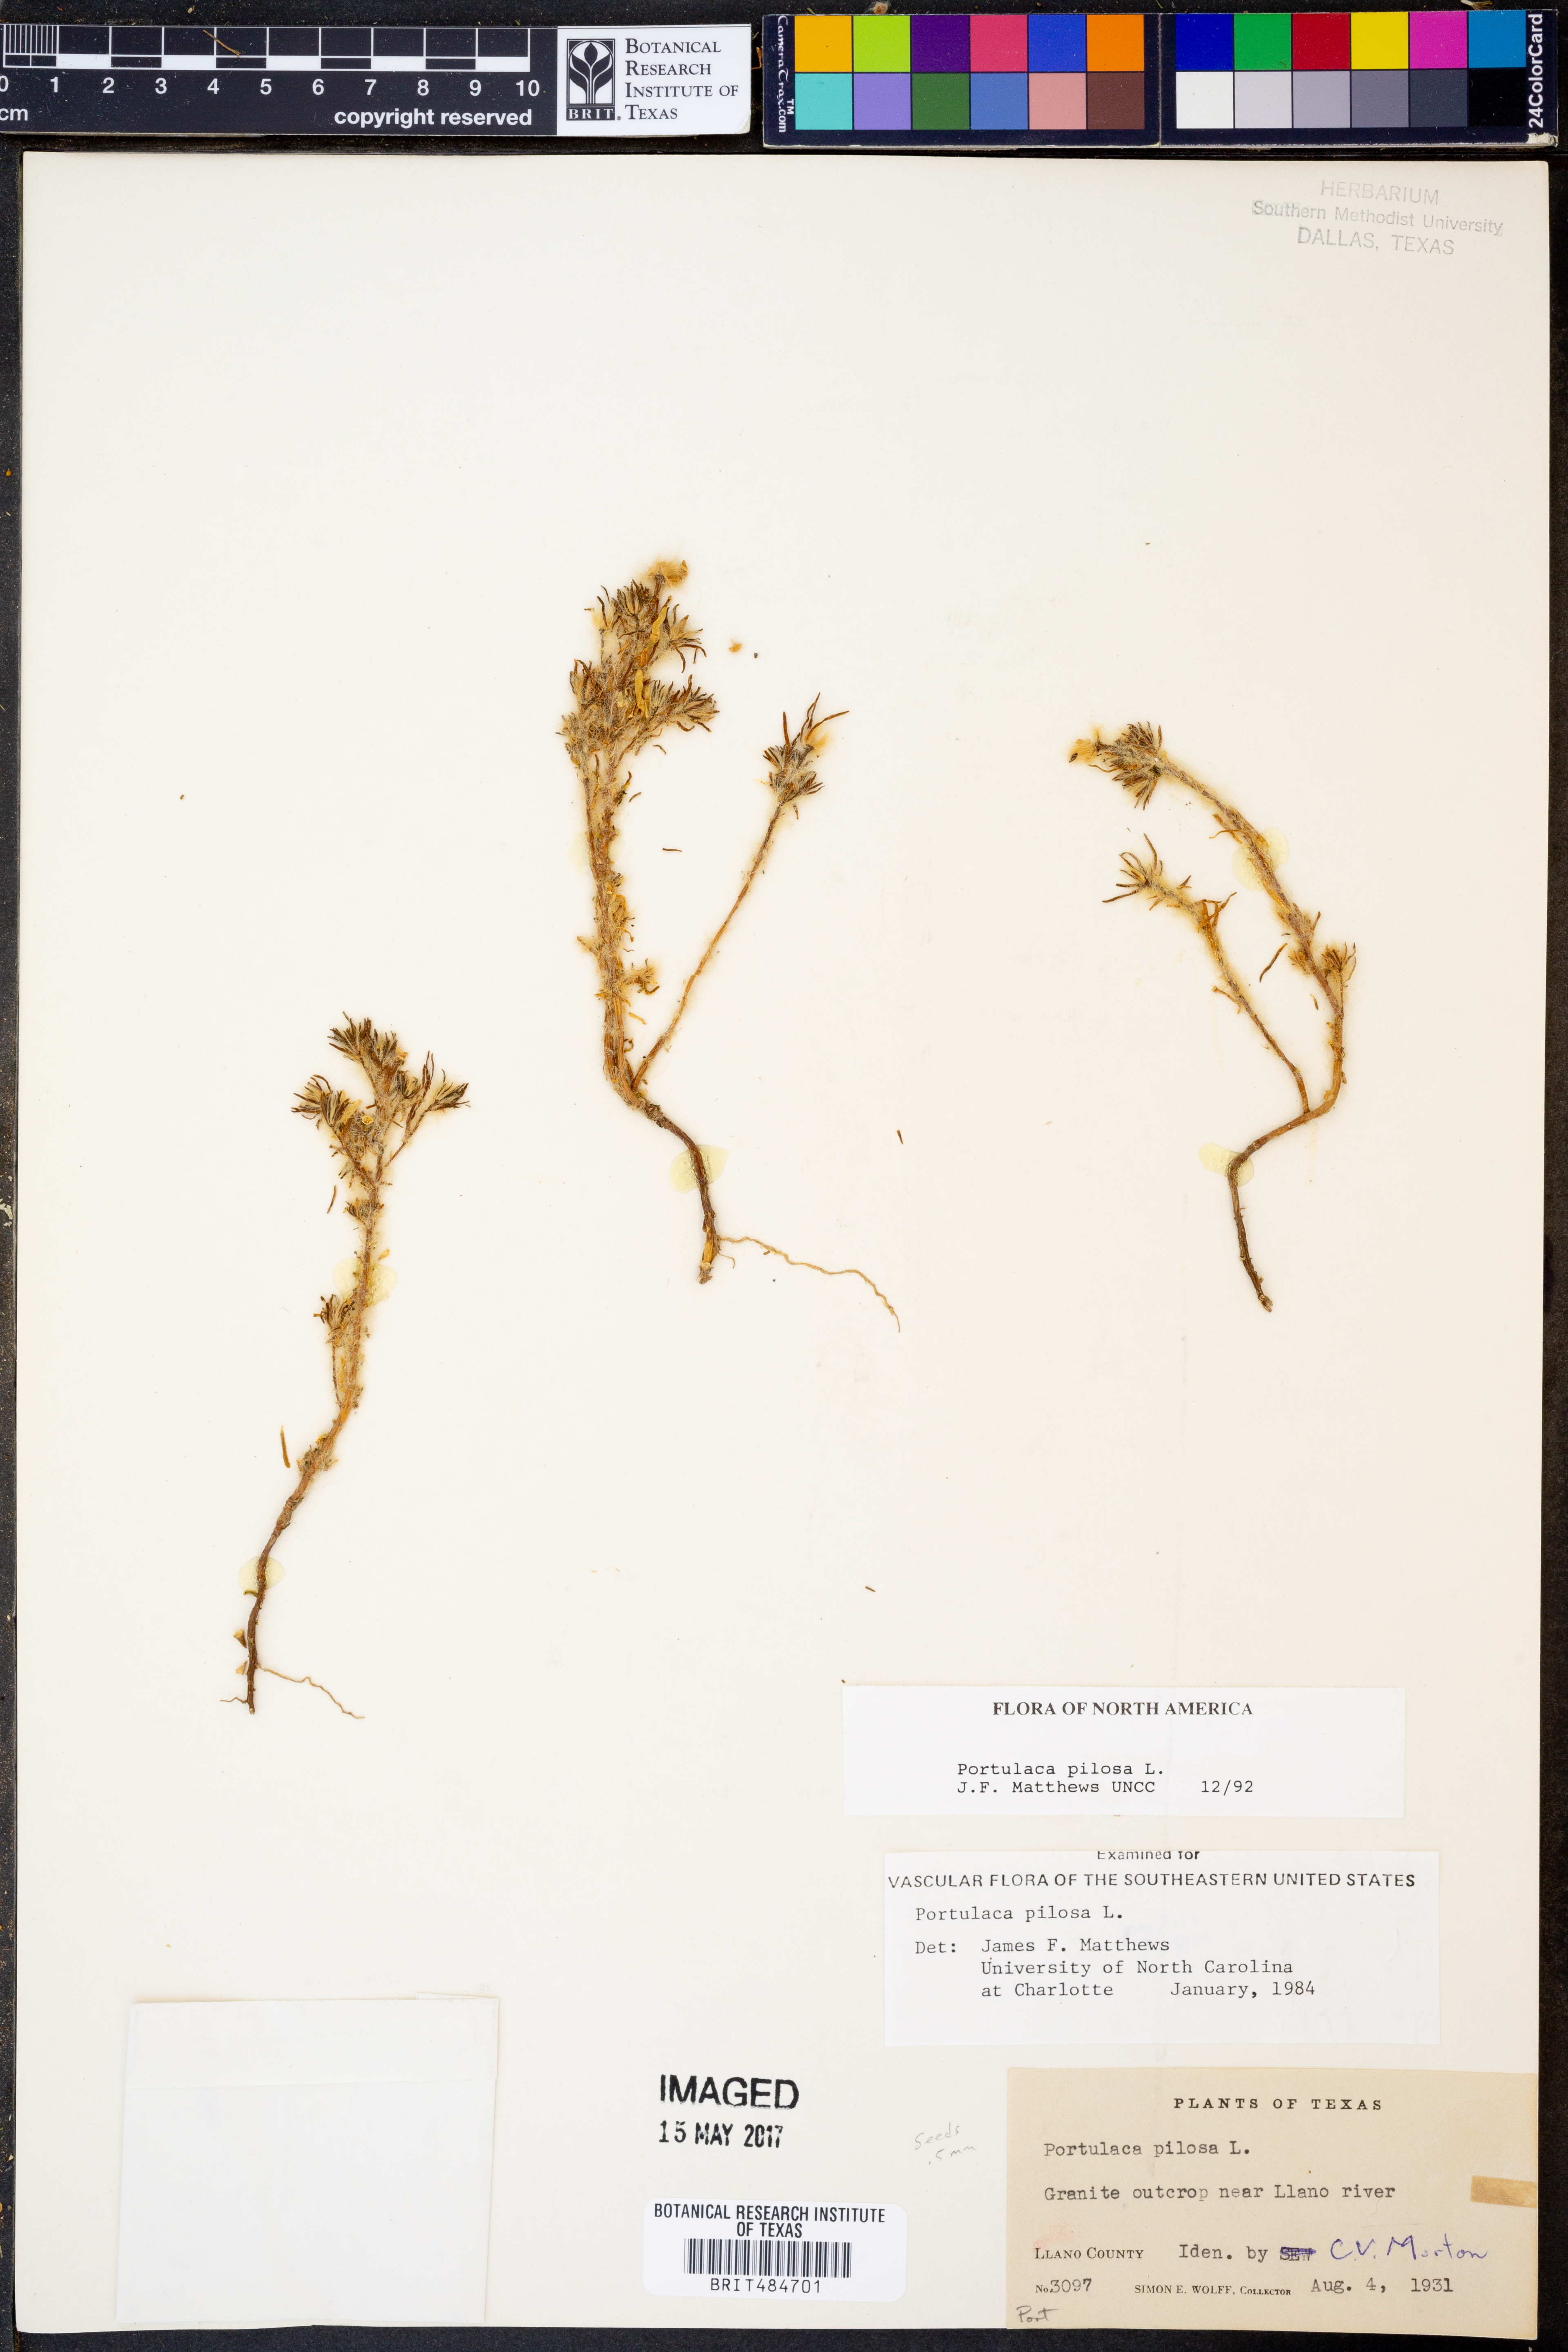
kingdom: Plantae
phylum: Tracheophyta
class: Magnoliopsida
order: Caryophyllales
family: Portulacaceae
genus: Portulaca
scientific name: Portulaca pilosa
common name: Kiss me quick
